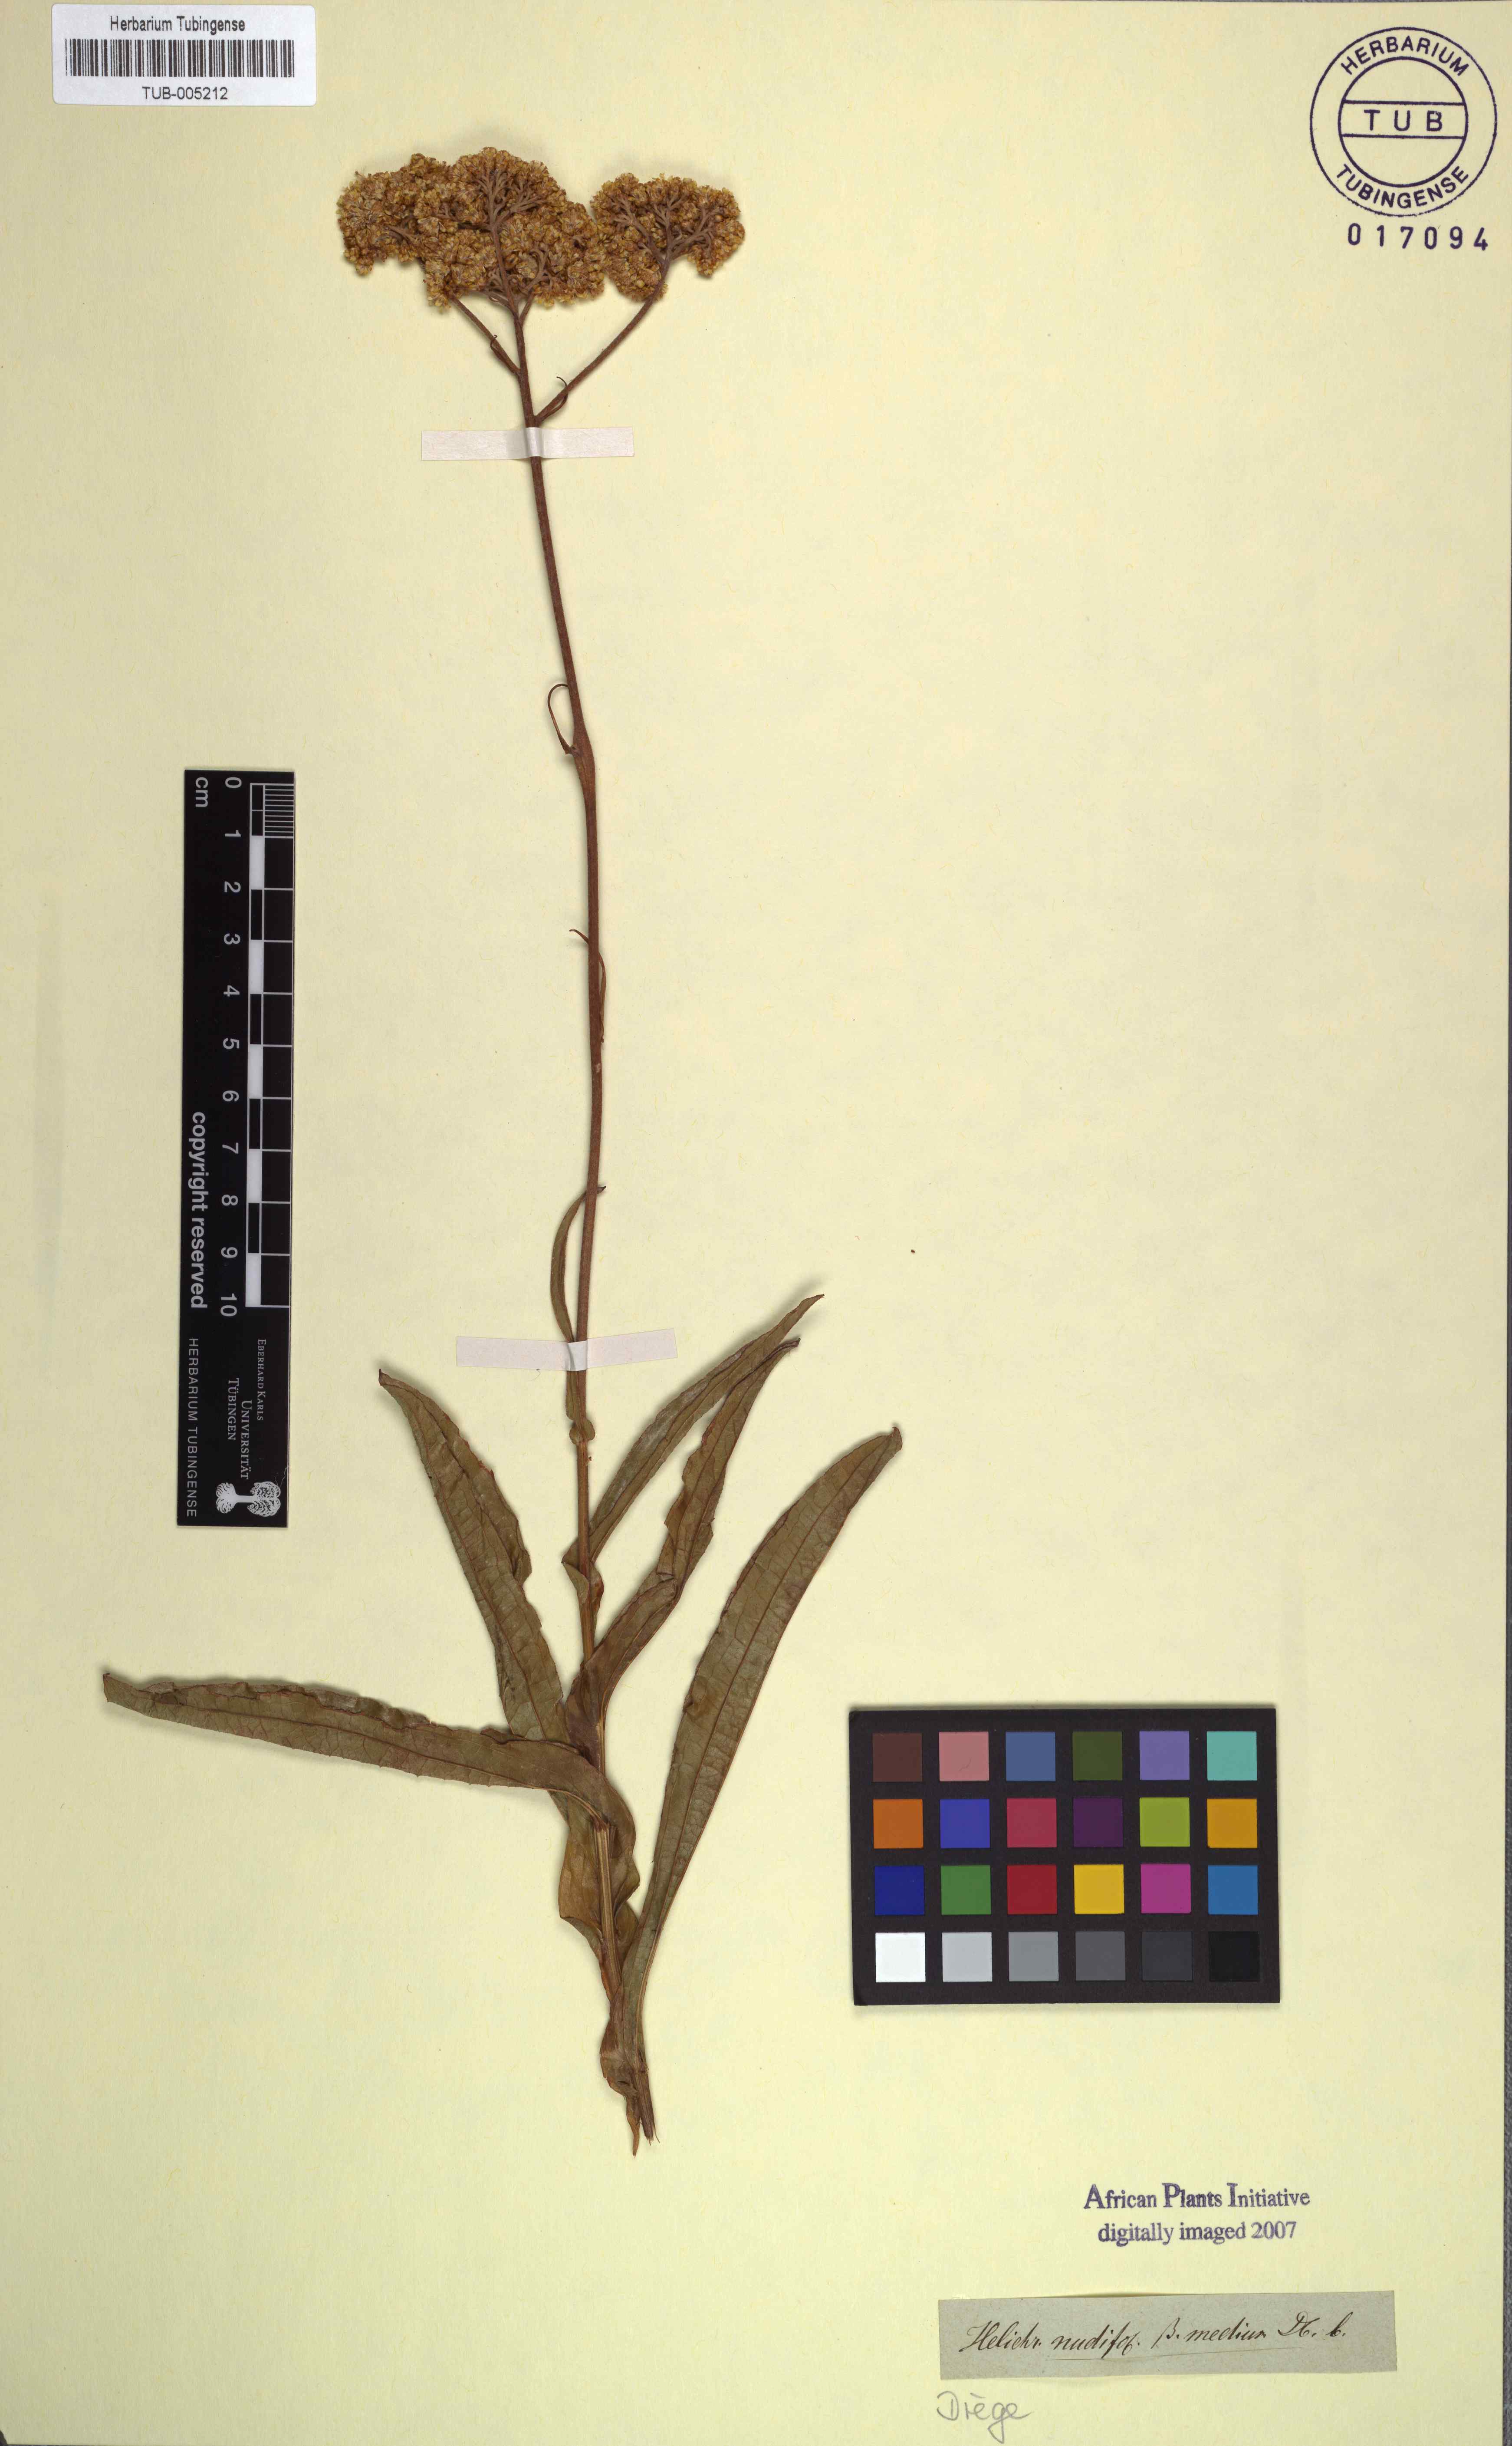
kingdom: Plantae
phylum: Tracheophyta
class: Magnoliopsida
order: Asterales
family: Asteraceae
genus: Helichrysum
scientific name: Helichrysum nudifolium
